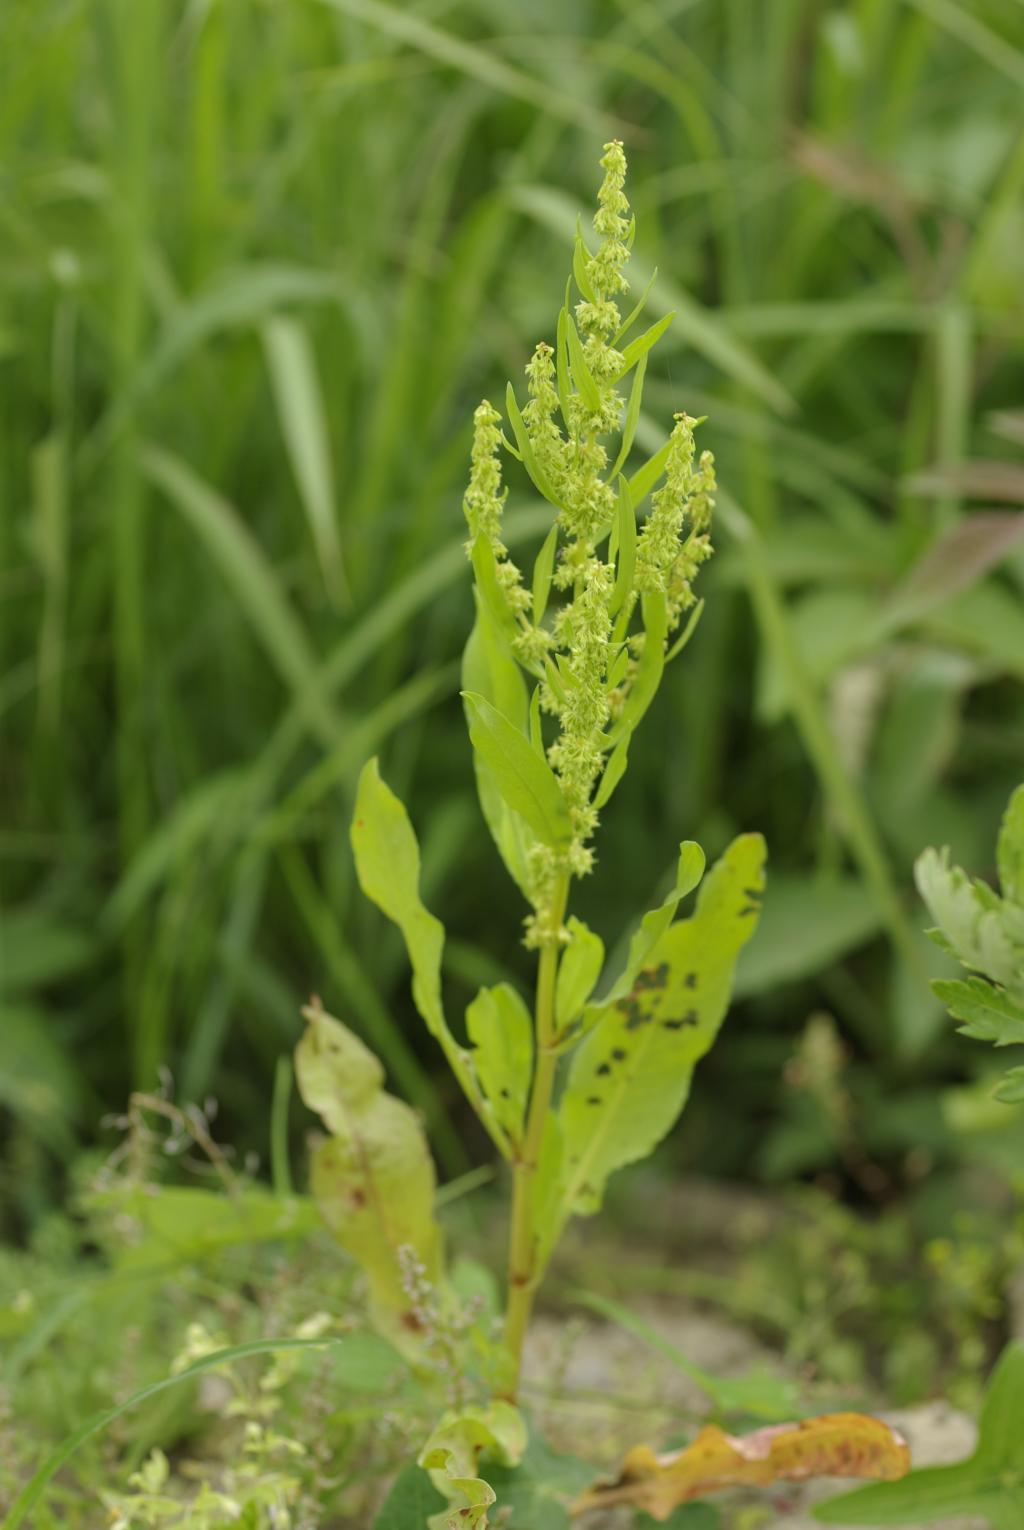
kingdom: Plantae
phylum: Tracheophyta
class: Magnoliopsida
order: Caryophyllales
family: Polygonaceae
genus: Rumex
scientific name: Rumex microcarpus
